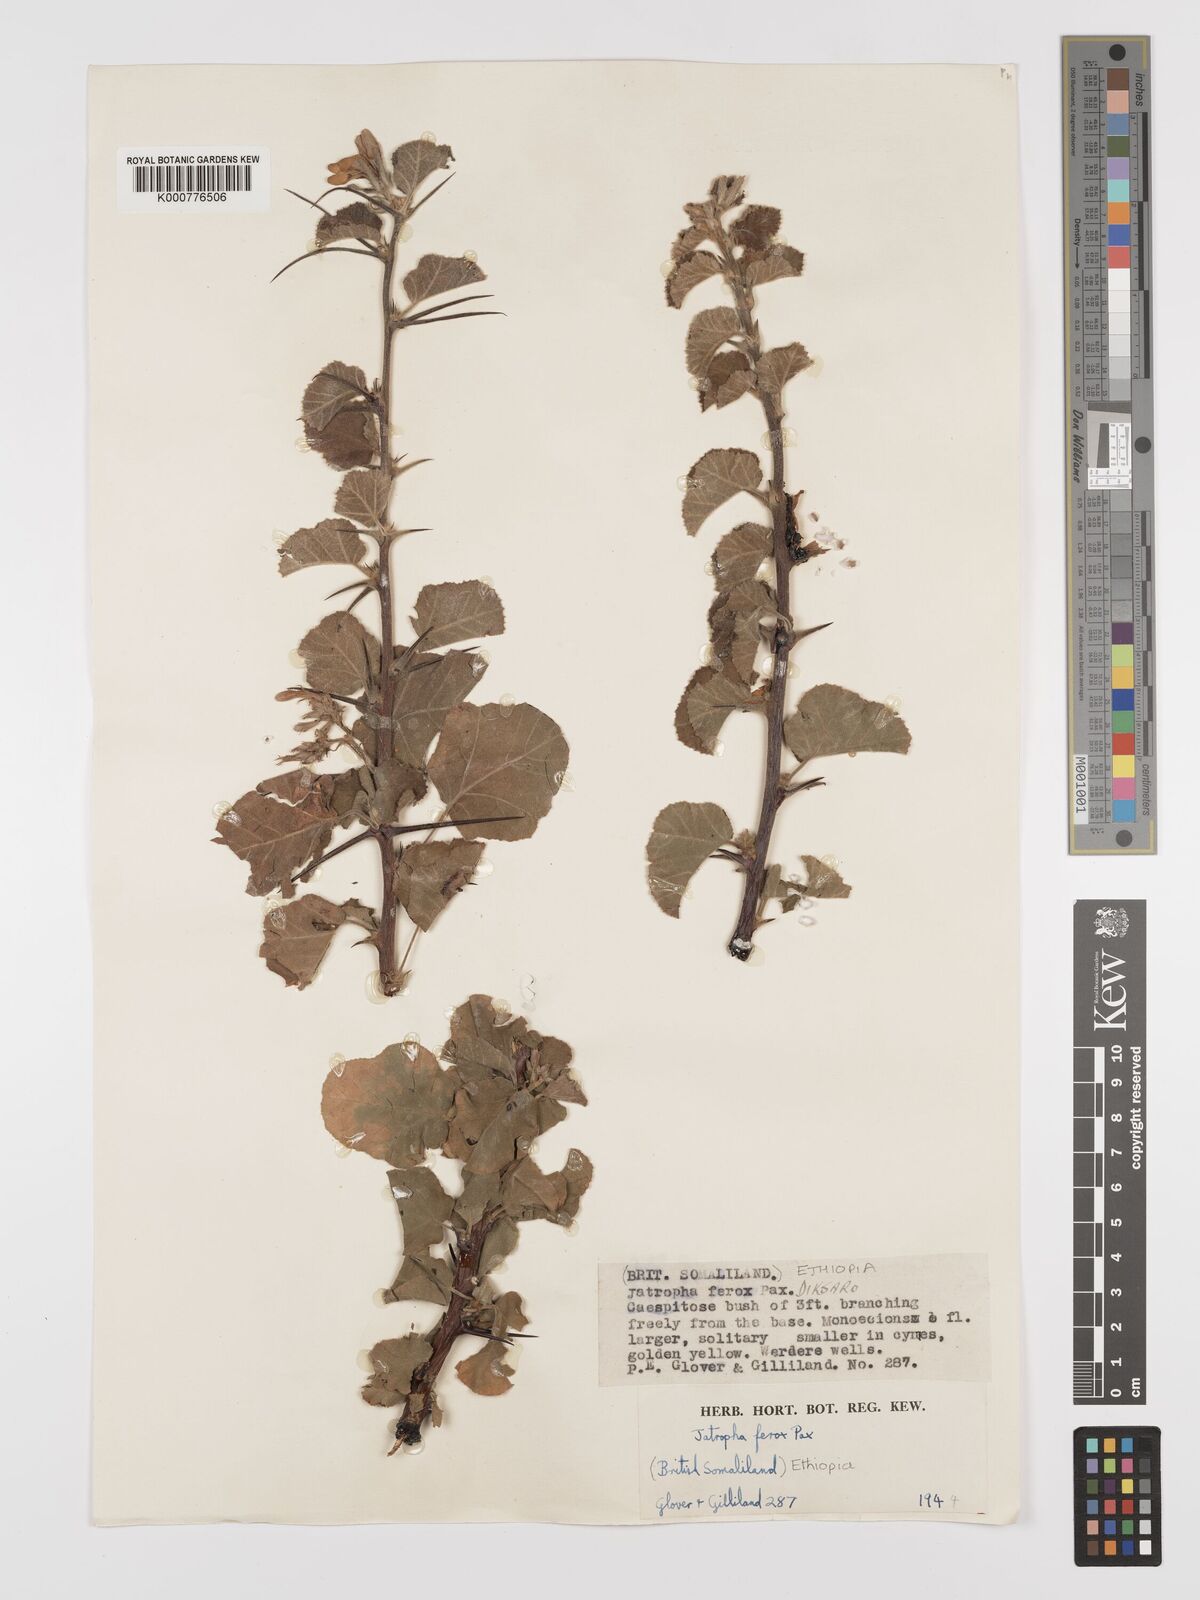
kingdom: Plantae
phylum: Tracheophyta
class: Magnoliopsida
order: Malpighiales
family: Euphorbiaceae
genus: Jatropha
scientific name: Jatropha dichtar
